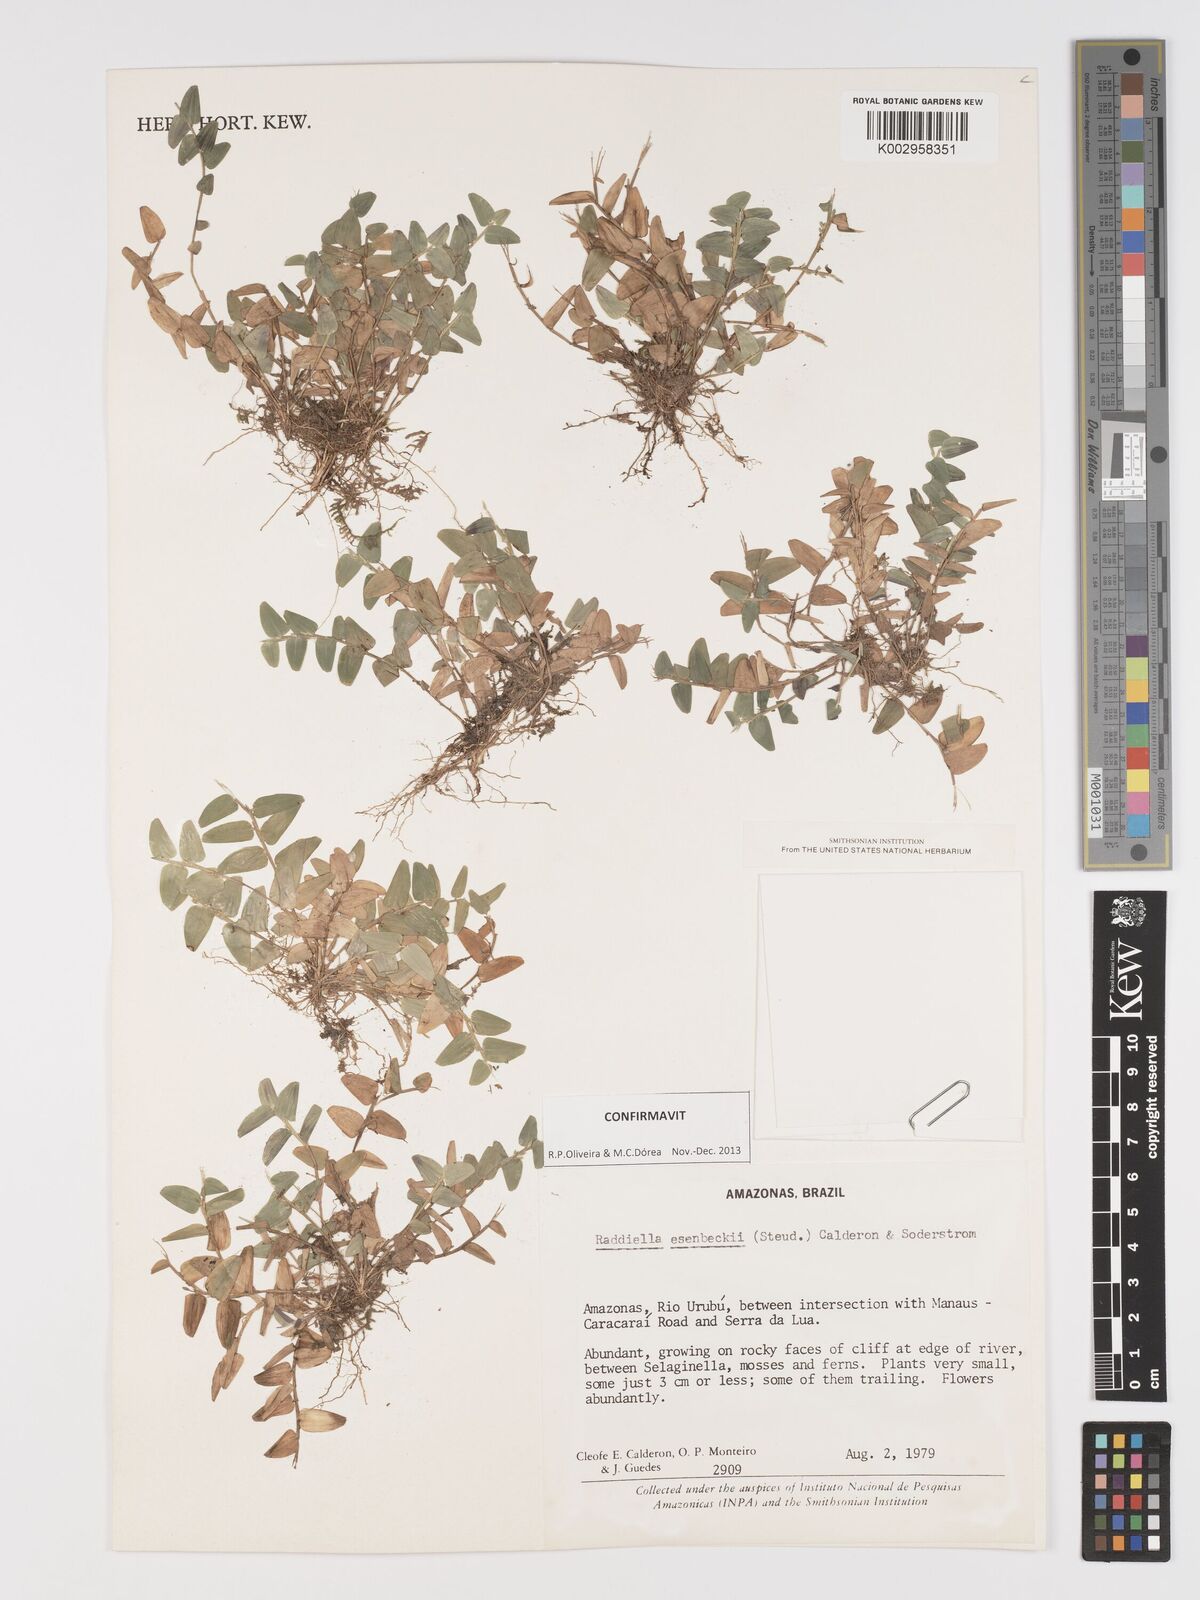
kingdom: Plantae
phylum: Tracheophyta
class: Liliopsida
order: Poales
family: Poaceae
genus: Raddiella
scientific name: Raddiella esenbeckii
